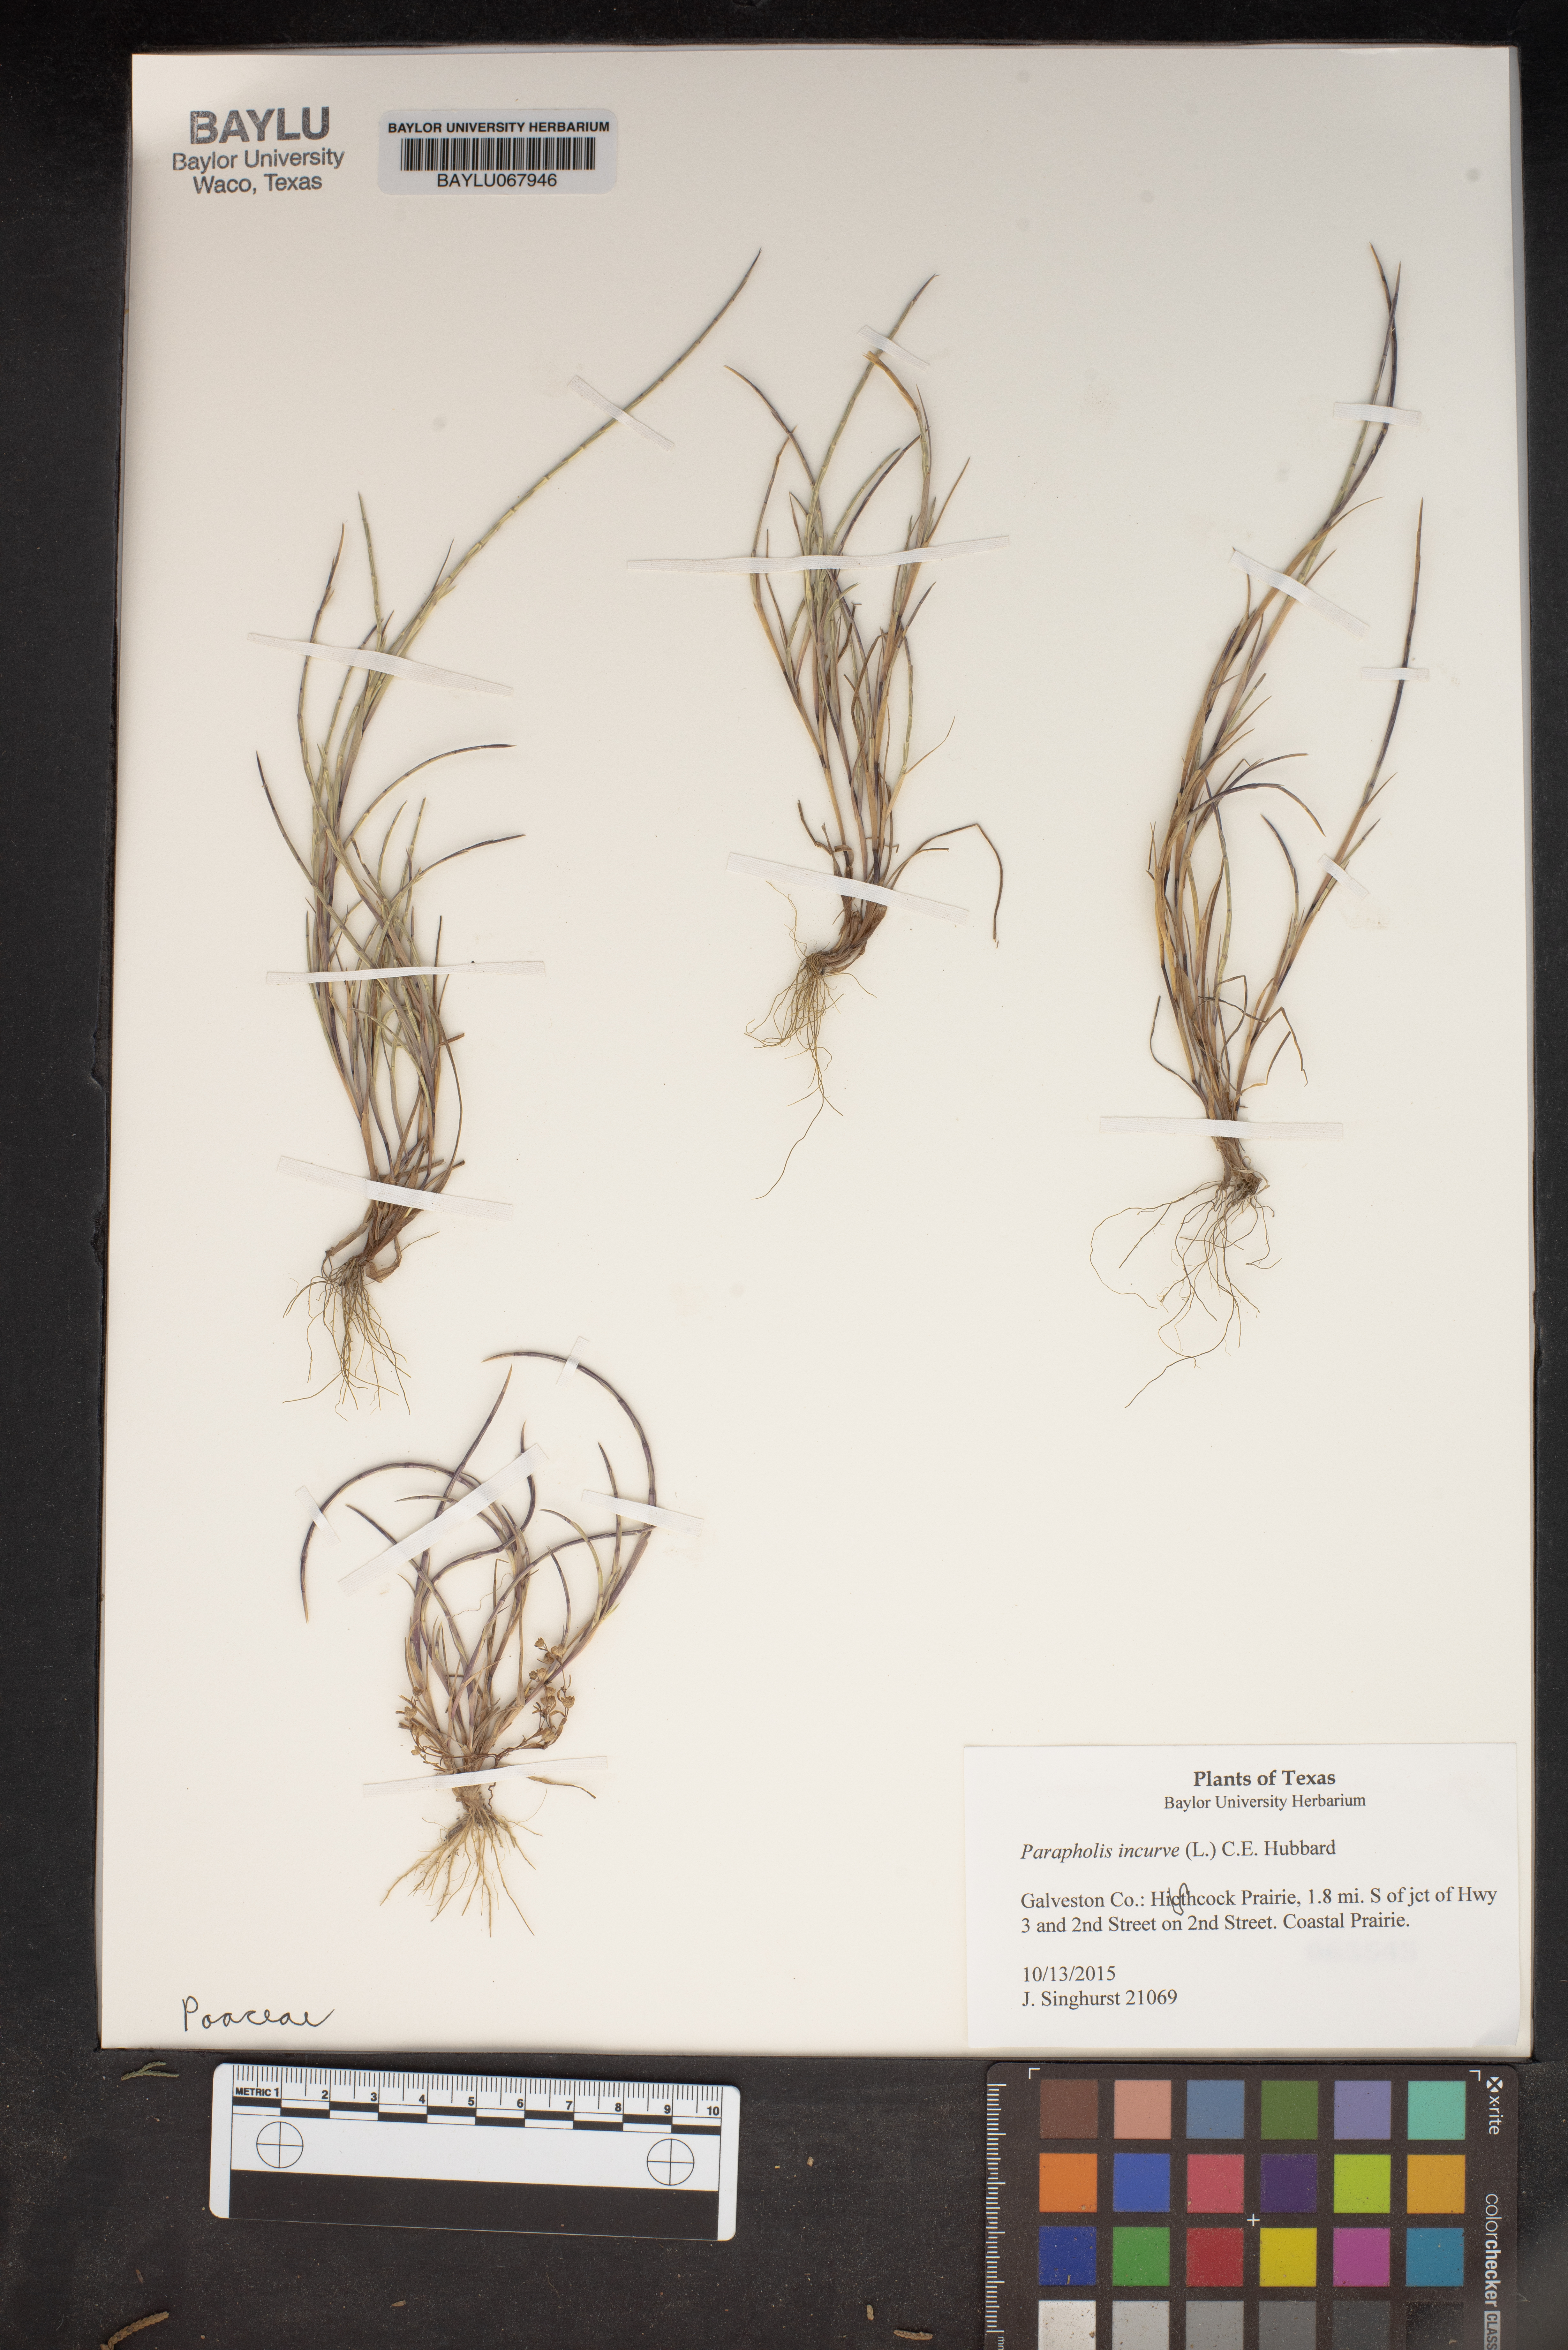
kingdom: Plantae
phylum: Tracheophyta
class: Liliopsida
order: Poales
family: Poaceae
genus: Parapholis
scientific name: Parapholis incurva
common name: Curved sicklegrass
